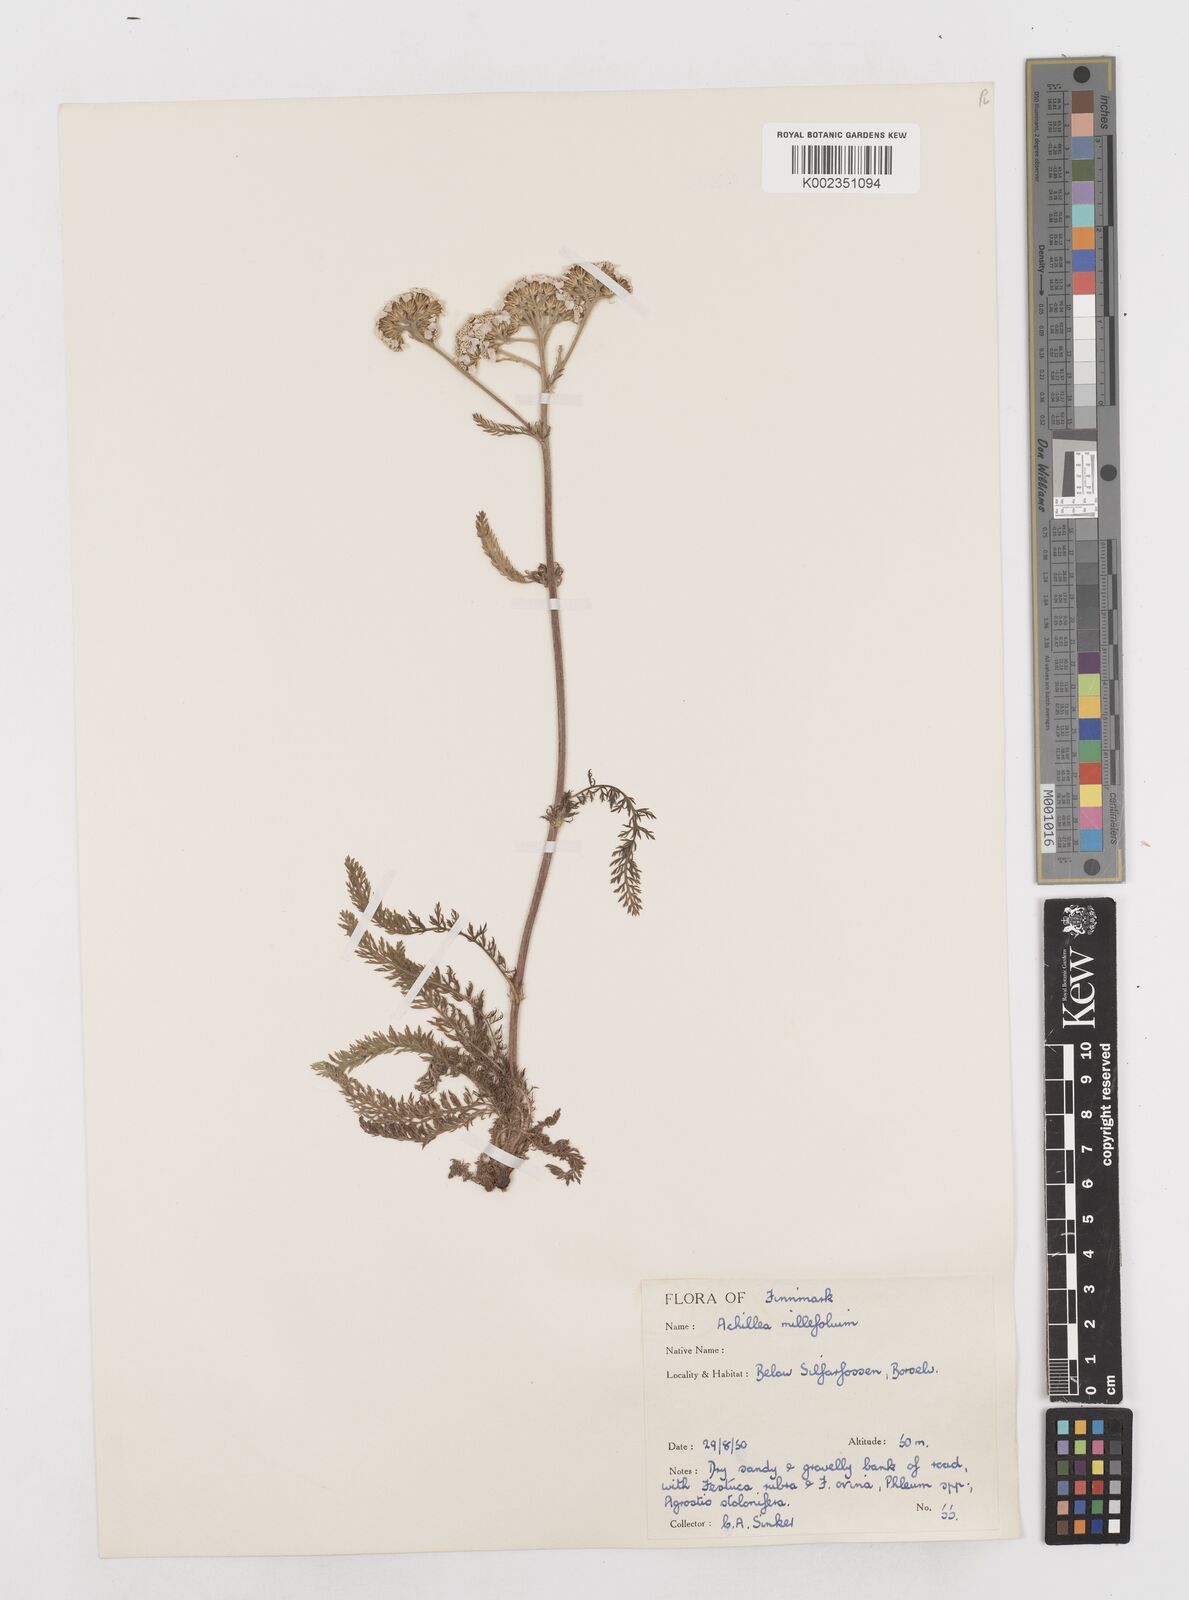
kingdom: Plantae
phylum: Tracheophyta
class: Magnoliopsida
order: Asterales
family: Asteraceae
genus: Achillea
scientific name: Achillea millefolium
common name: Yarrow
